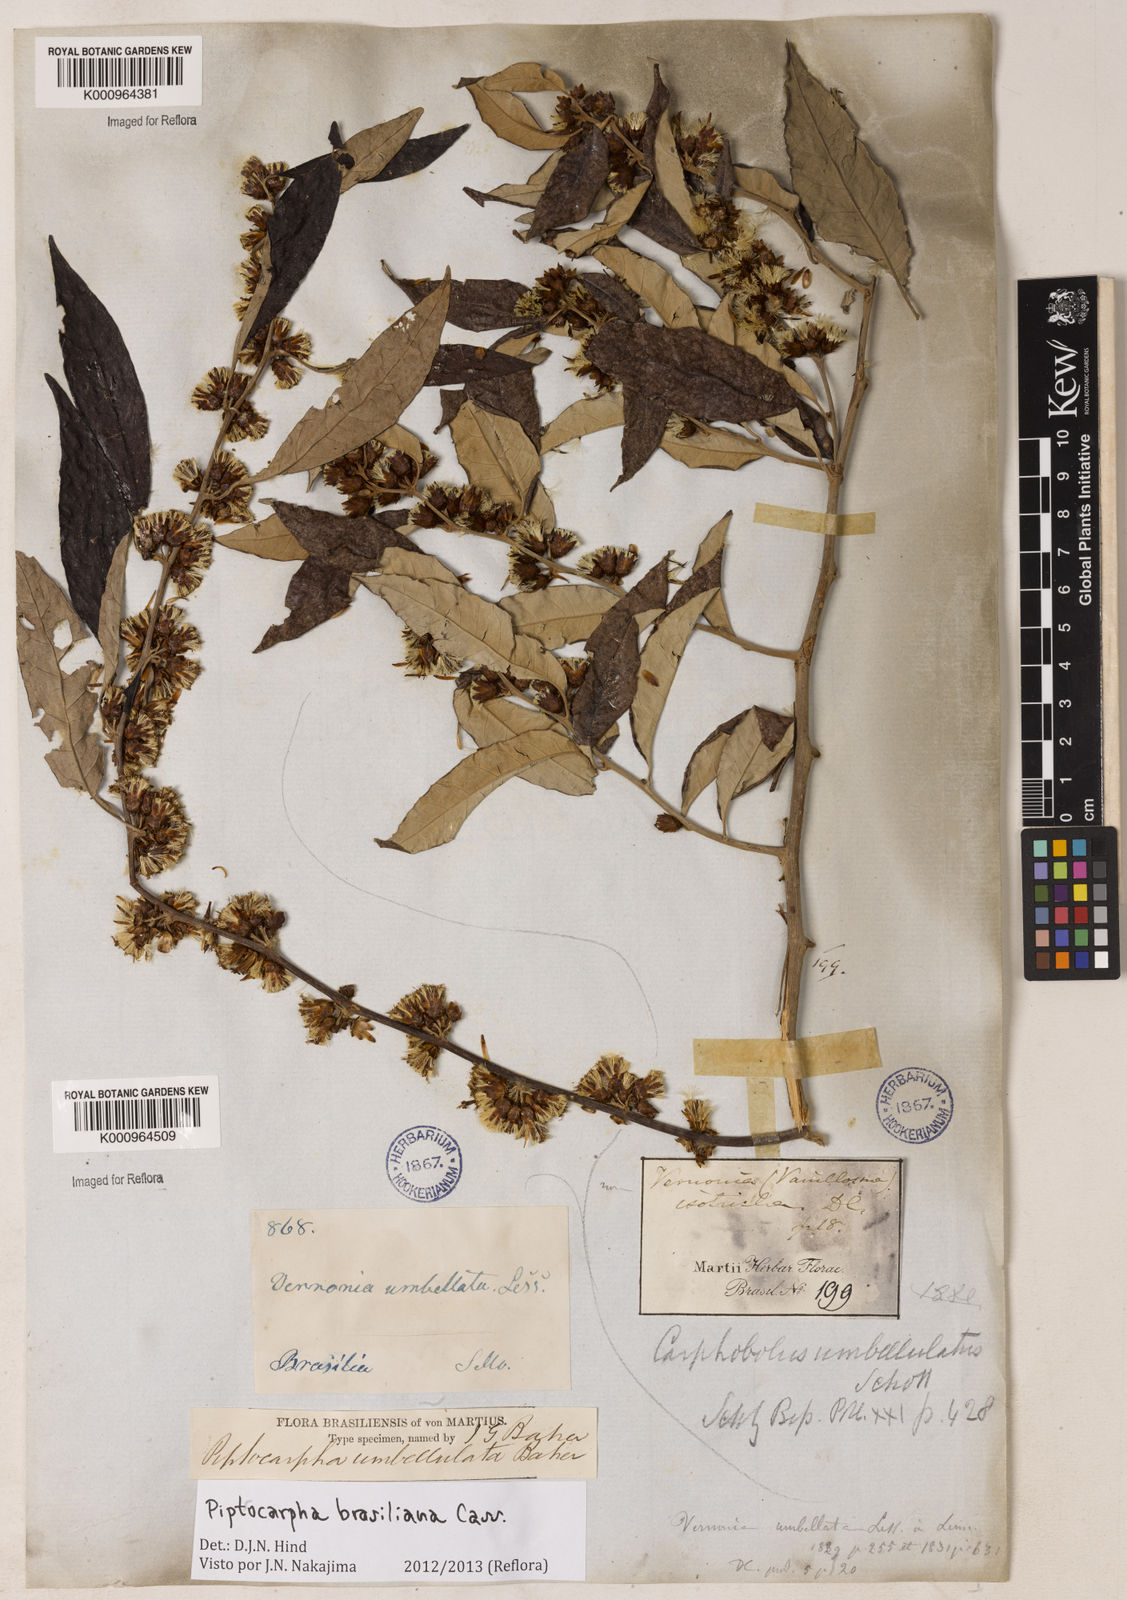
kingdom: Plantae
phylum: Tracheophyta
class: Magnoliopsida
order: Asterales
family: Asteraceae
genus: Piptocarpha
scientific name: Piptocarpha brasiliana
